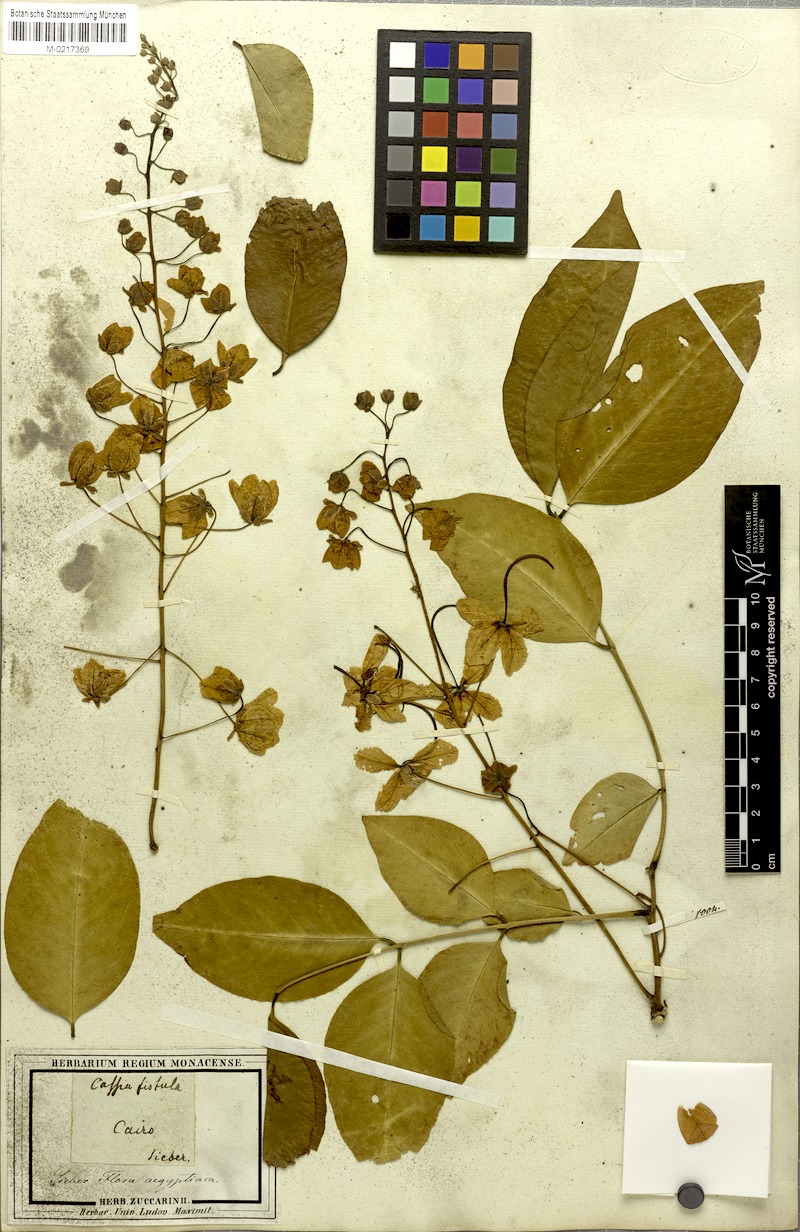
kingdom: Plantae
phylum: Tracheophyta
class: Magnoliopsida
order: Fabales
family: Fabaceae
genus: Cassia
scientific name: Cassia fistula
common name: Golden shower
